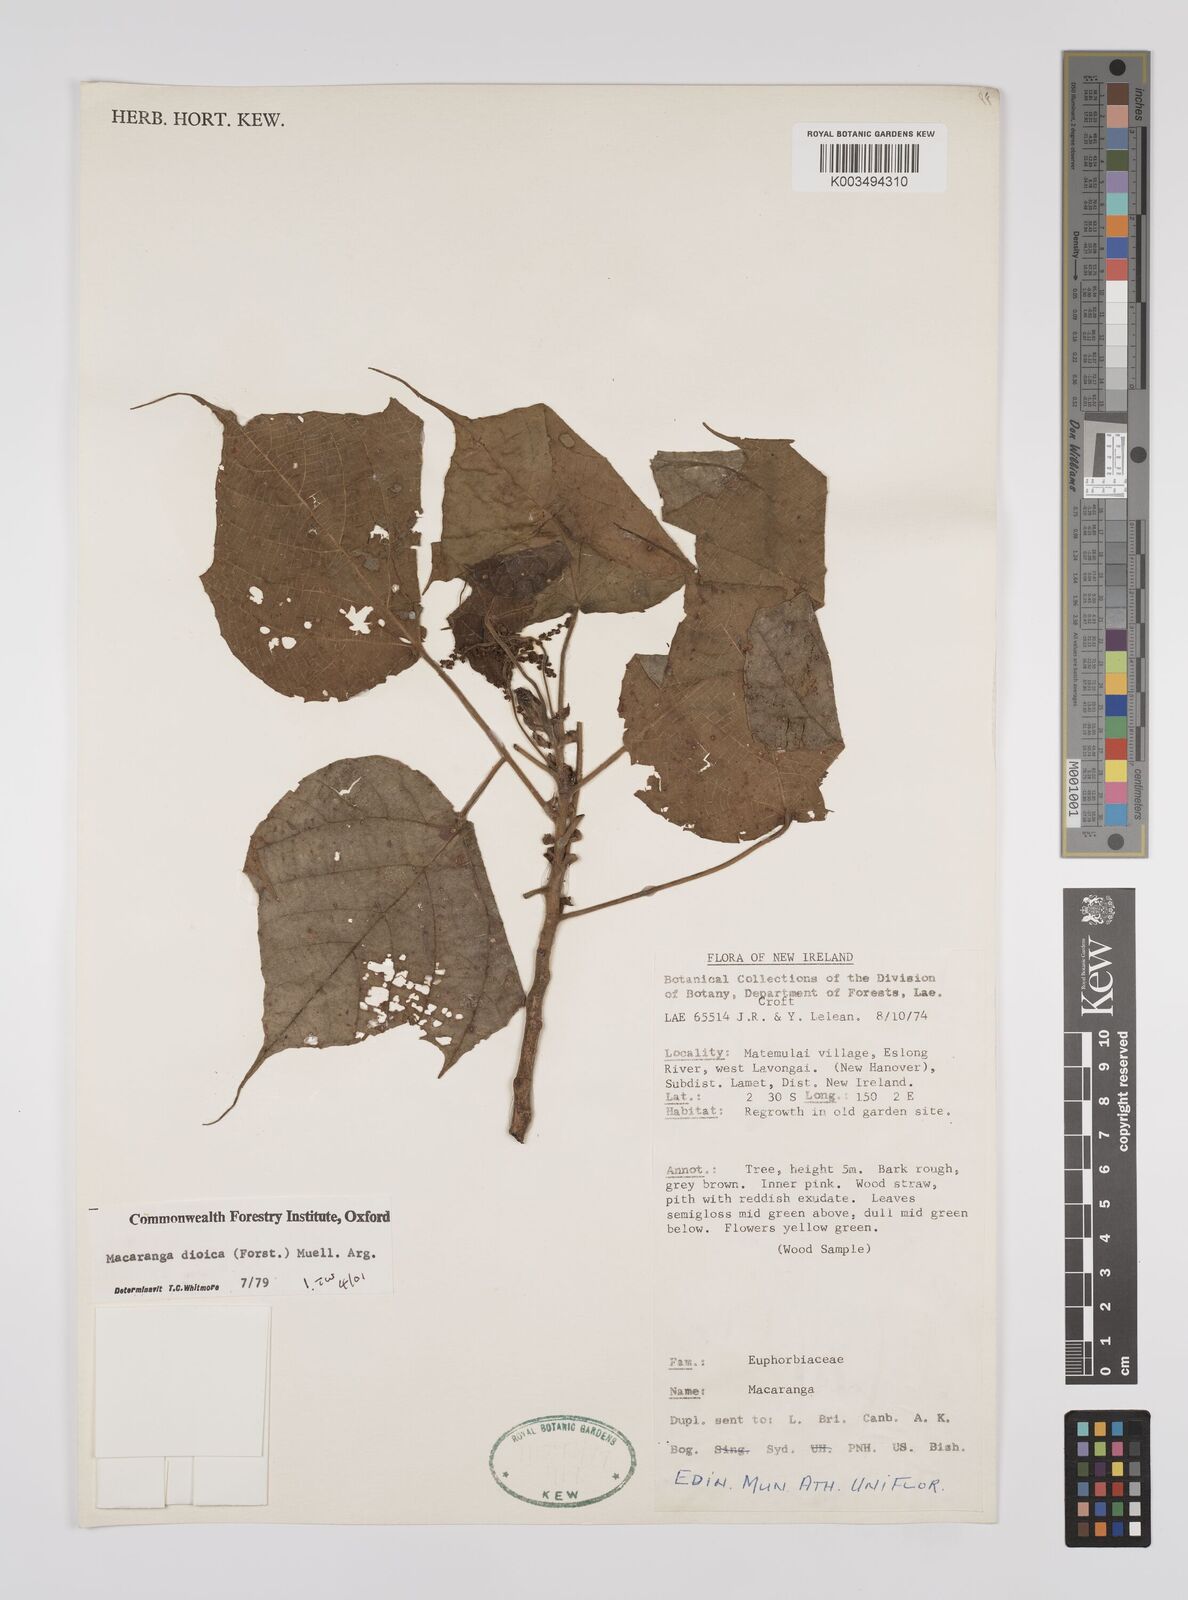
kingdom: Plantae
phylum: Tracheophyta
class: Magnoliopsida
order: Malpighiales
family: Euphorbiaceae
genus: Macaranga
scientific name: Macaranga dioica
